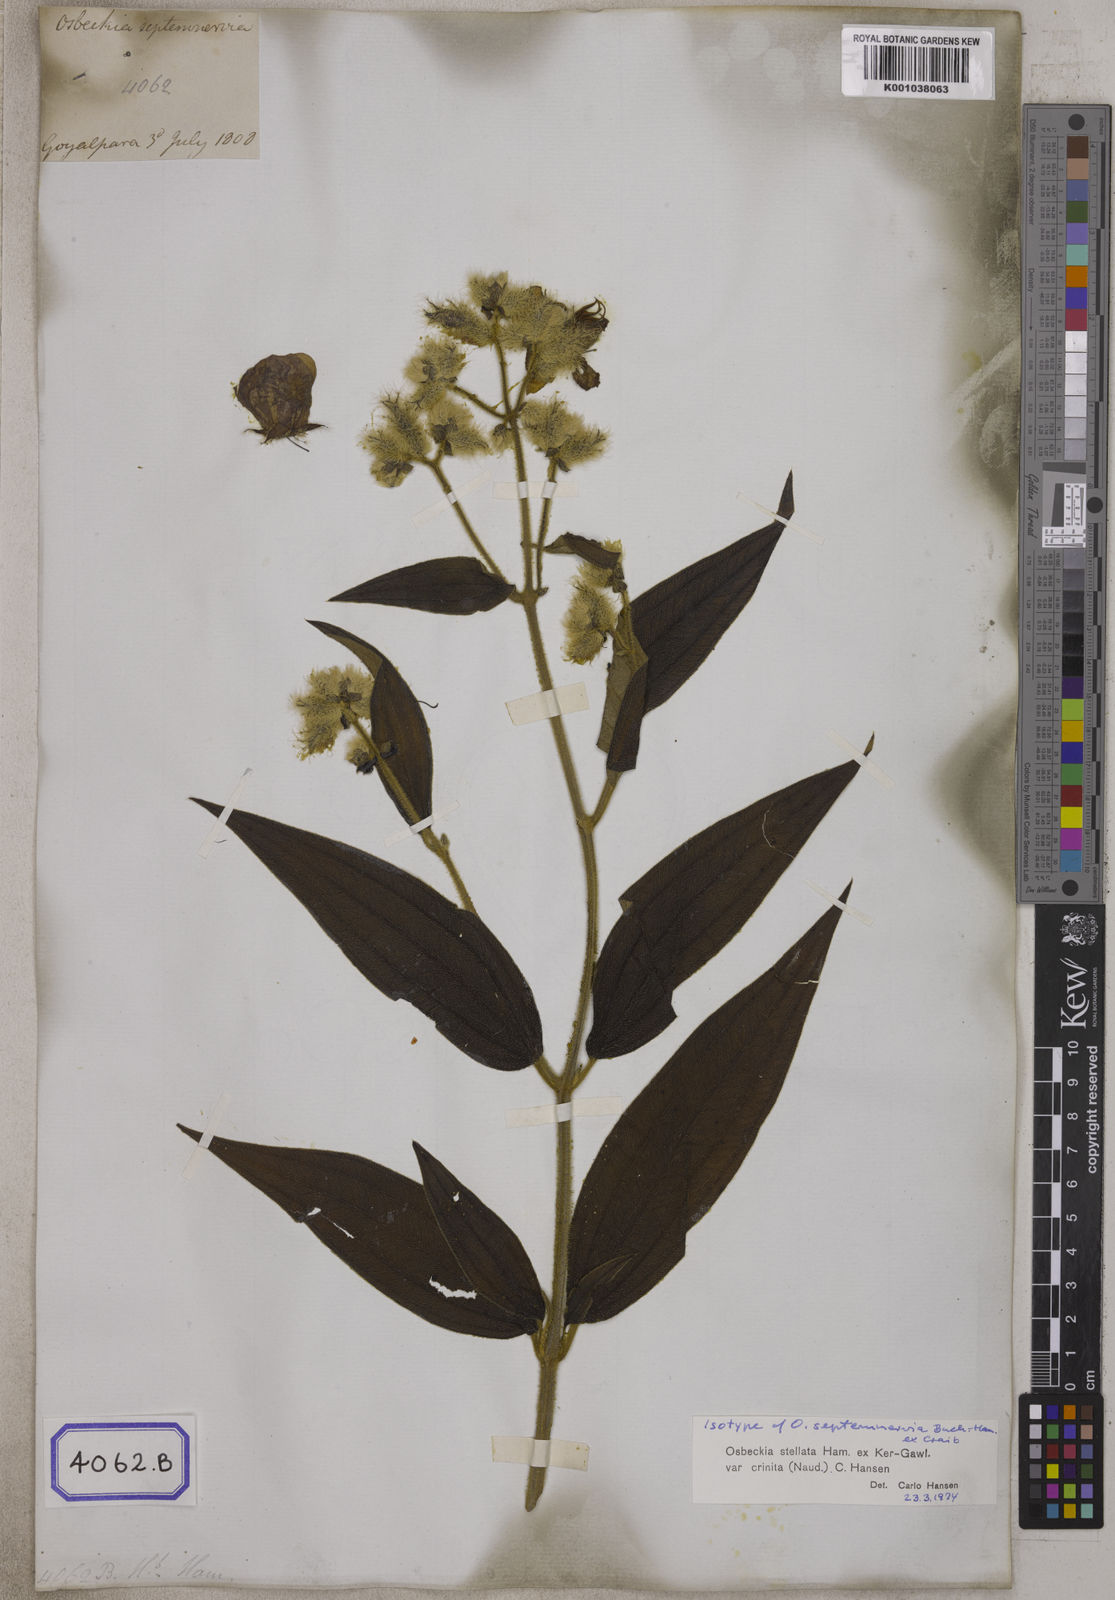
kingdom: Plantae
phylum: Tracheophyta
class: Magnoliopsida
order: Myrtales
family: Melastomataceae
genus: Osbeckia
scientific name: Osbeckia stellata
